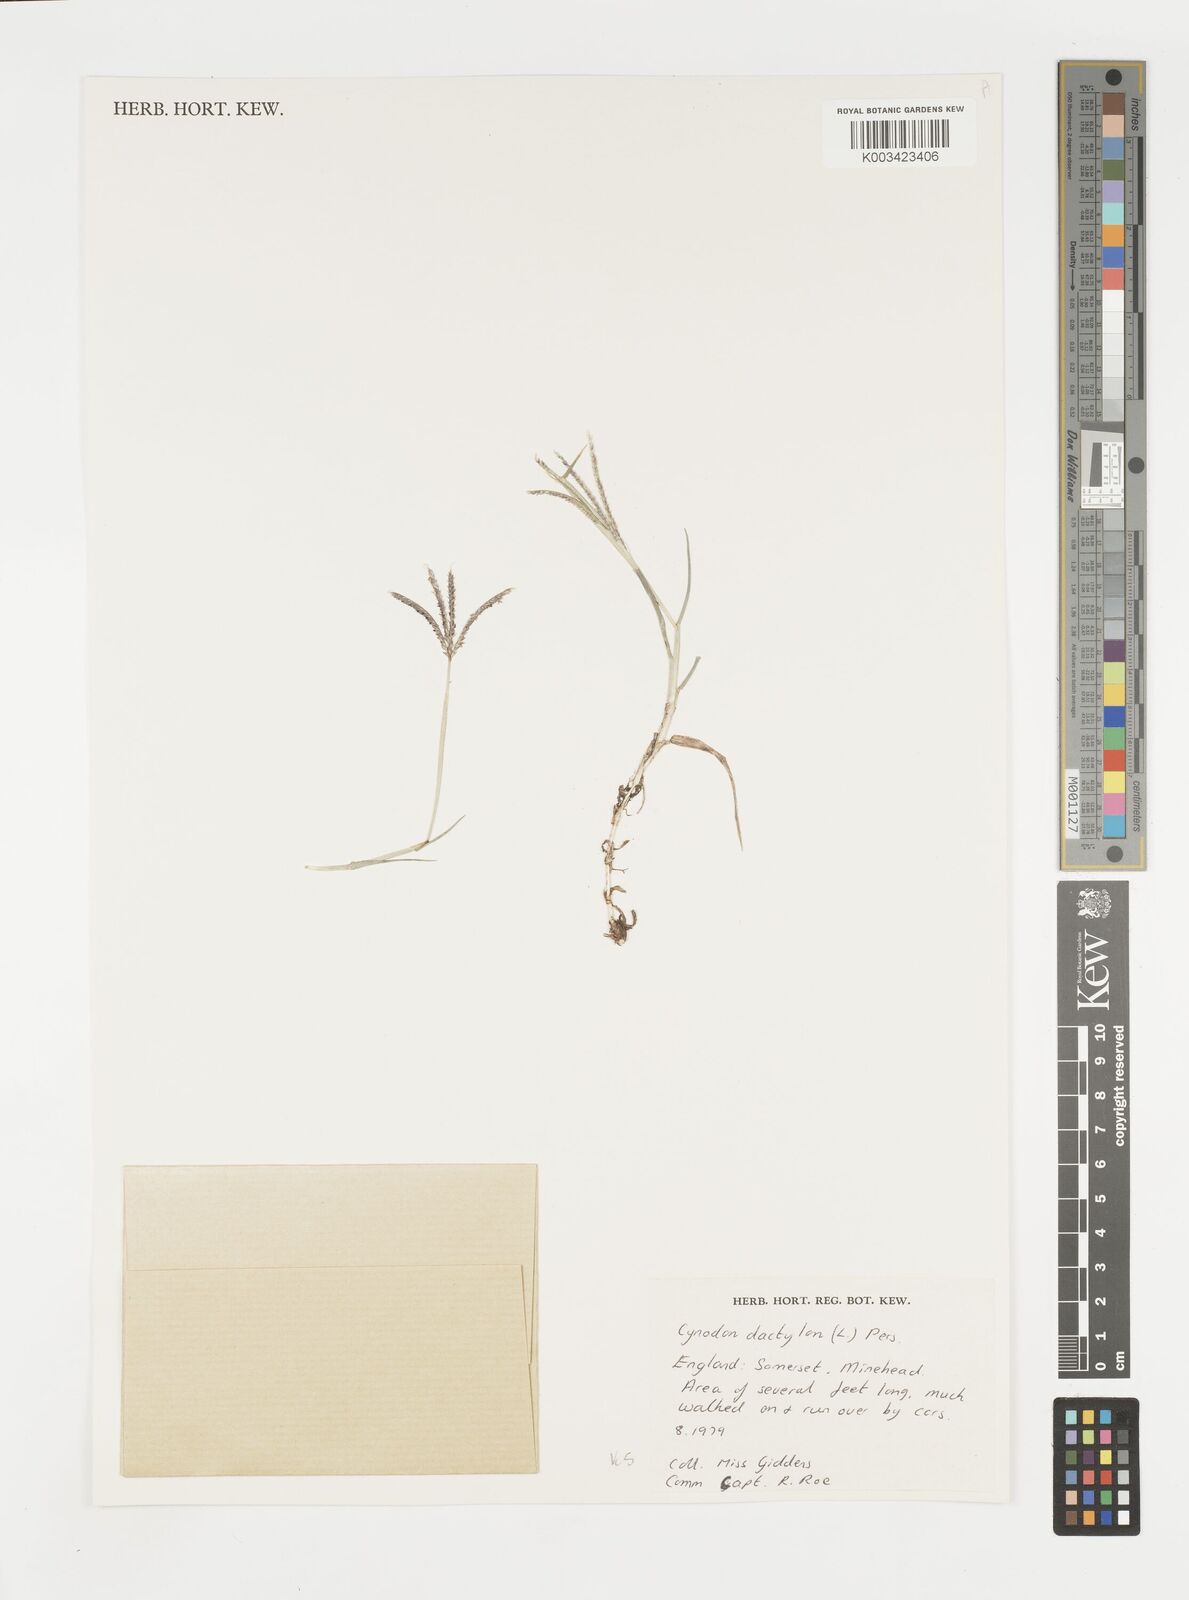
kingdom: Plantae
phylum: Tracheophyta
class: Liliopsida
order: Poales
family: Poaceae
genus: Cynodon
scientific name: Cynodon dactylon
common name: Bermuda grass
